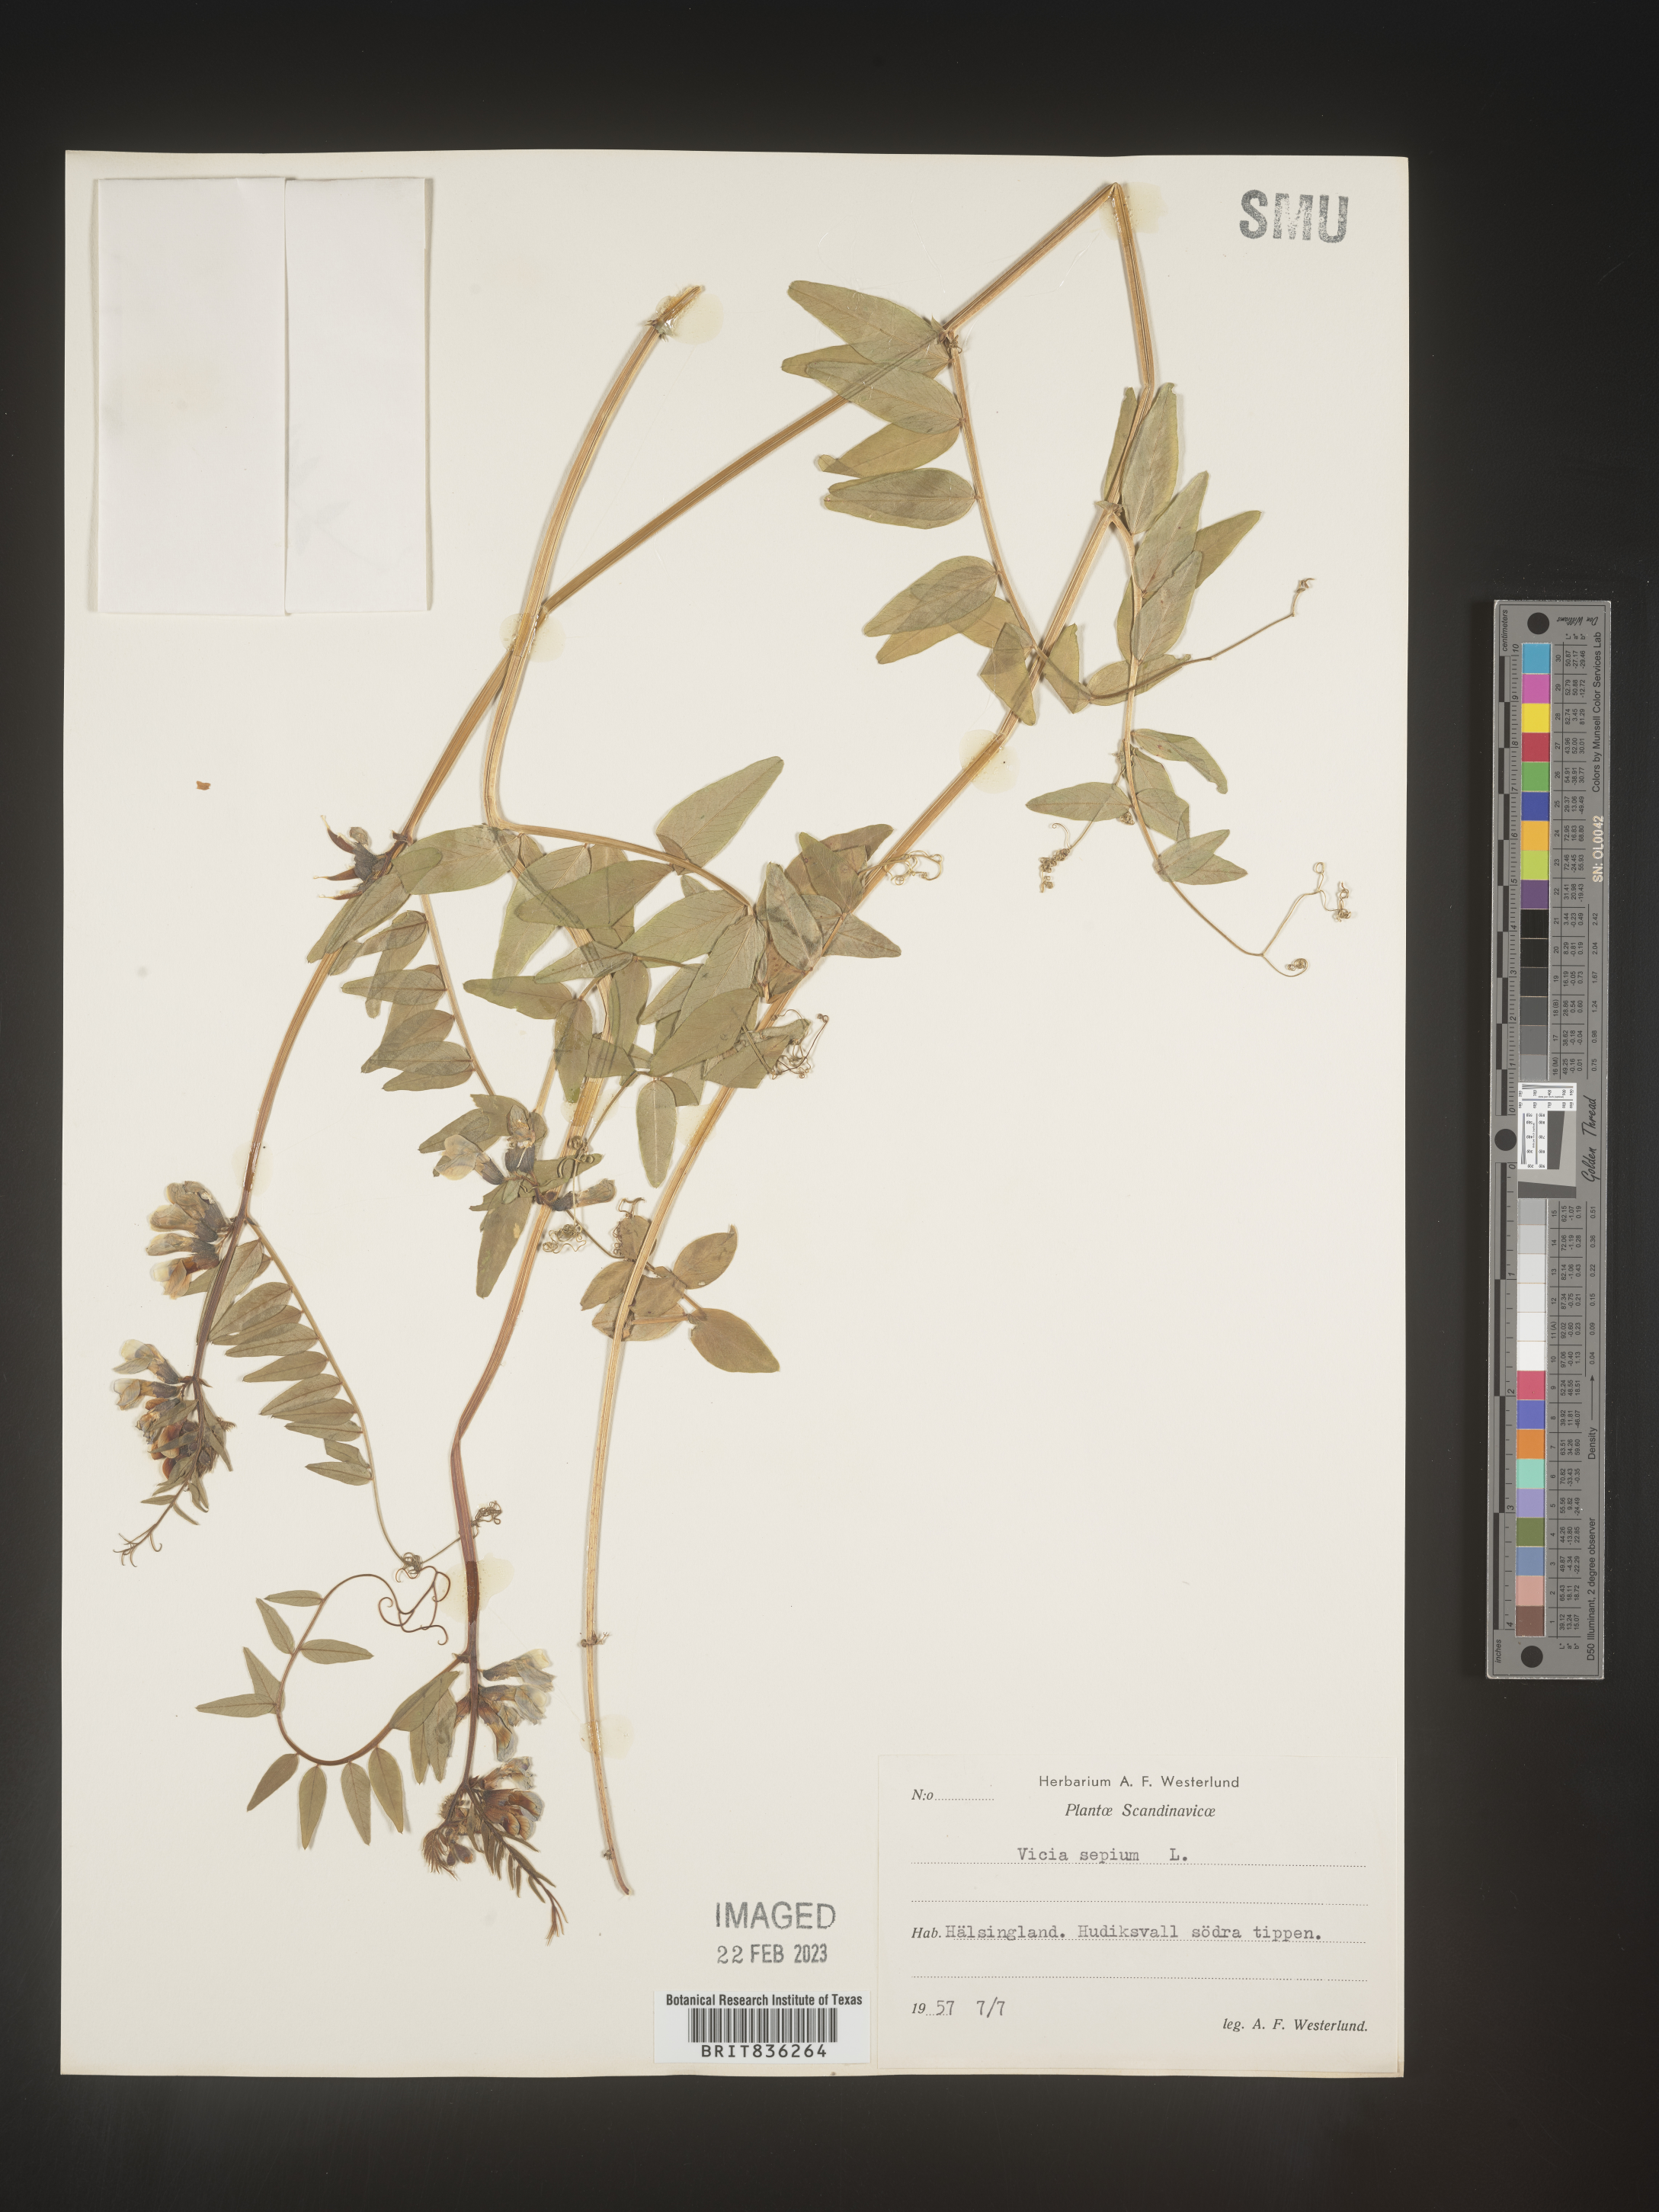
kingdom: Plantae
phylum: Tracheophyta
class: Magnoliopsida
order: Fabales
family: Fabaceae
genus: Vicia
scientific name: Vicia
